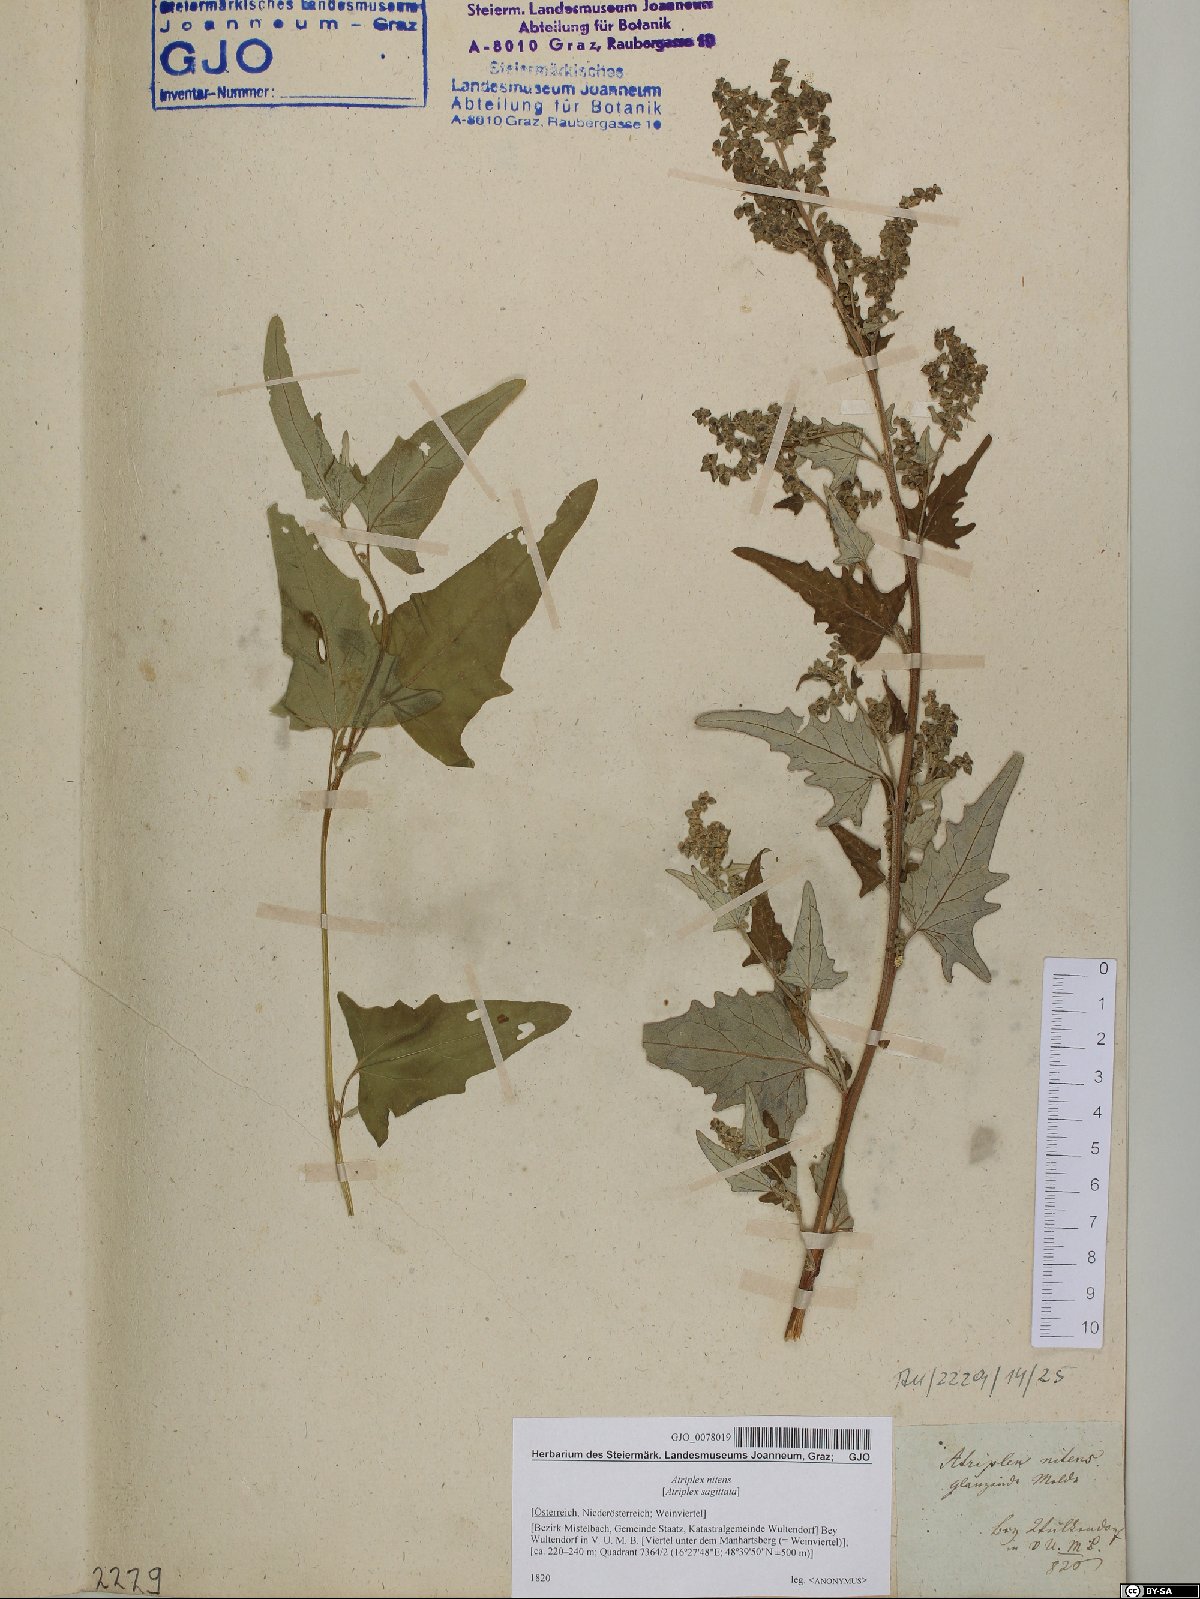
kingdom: Plantae
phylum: Tracheophyta
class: Magnoliopsida
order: Caryophyllales
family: Amaranthaceae
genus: Atriplex
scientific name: Atriplex sagittata
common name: Purple orache
